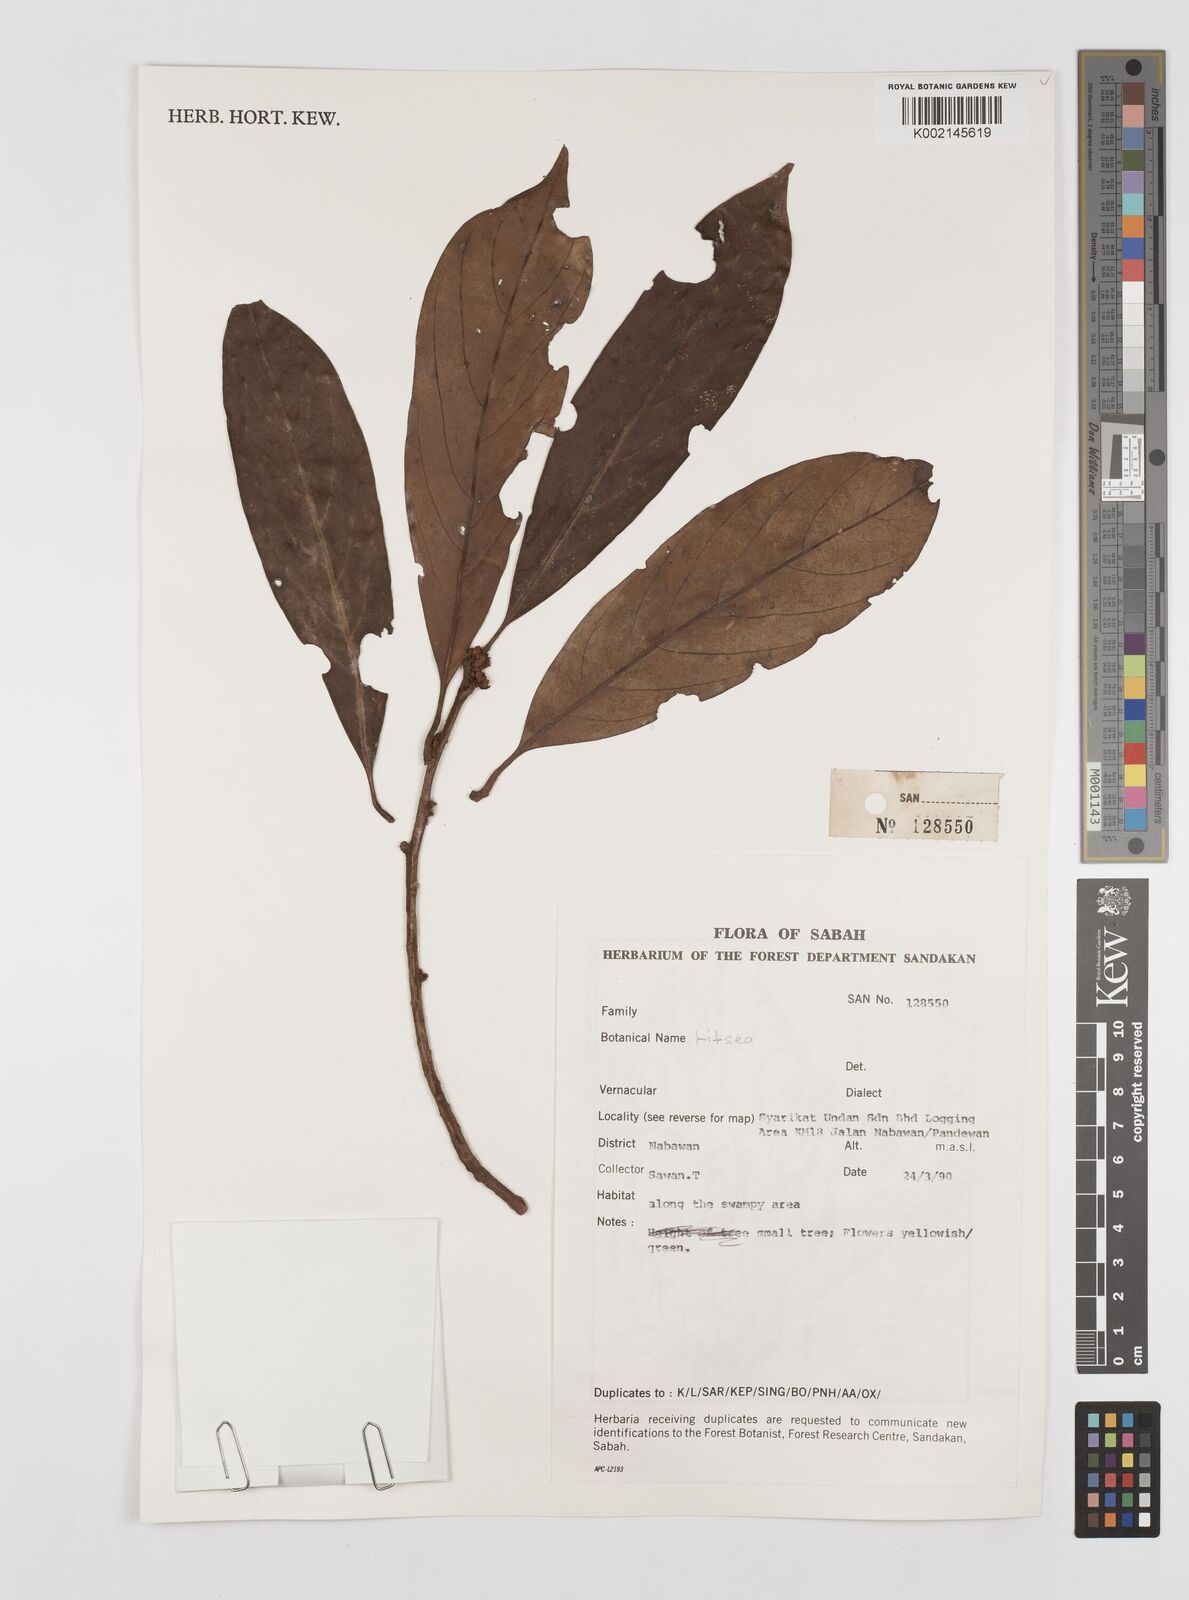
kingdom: Plantae
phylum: Tracheophyta
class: Magnoliopsida
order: Laurales
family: Lauraceae
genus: Litsea
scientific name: Litsea
